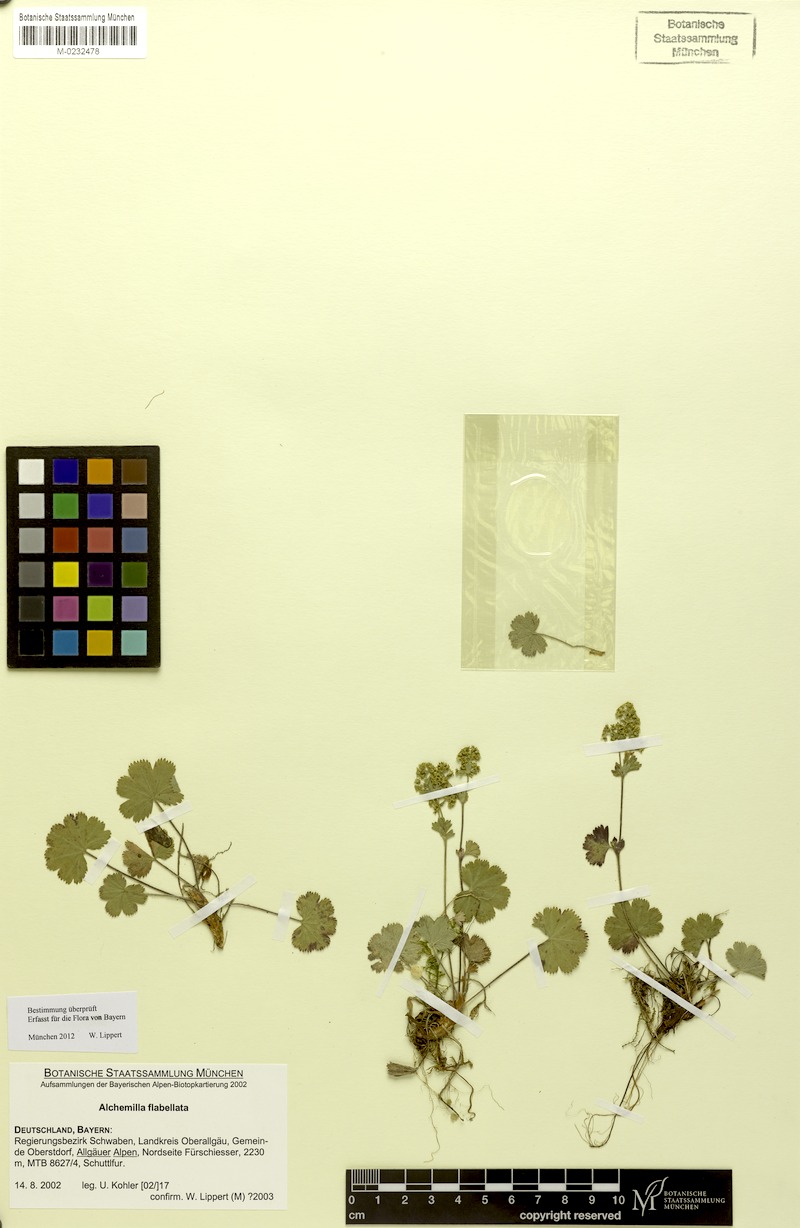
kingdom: Plantae
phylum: Tracheophyta
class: Magnoliopsida
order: Rosales
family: Rosaceae
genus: Alchemilla
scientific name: Alchemilla flabellata
